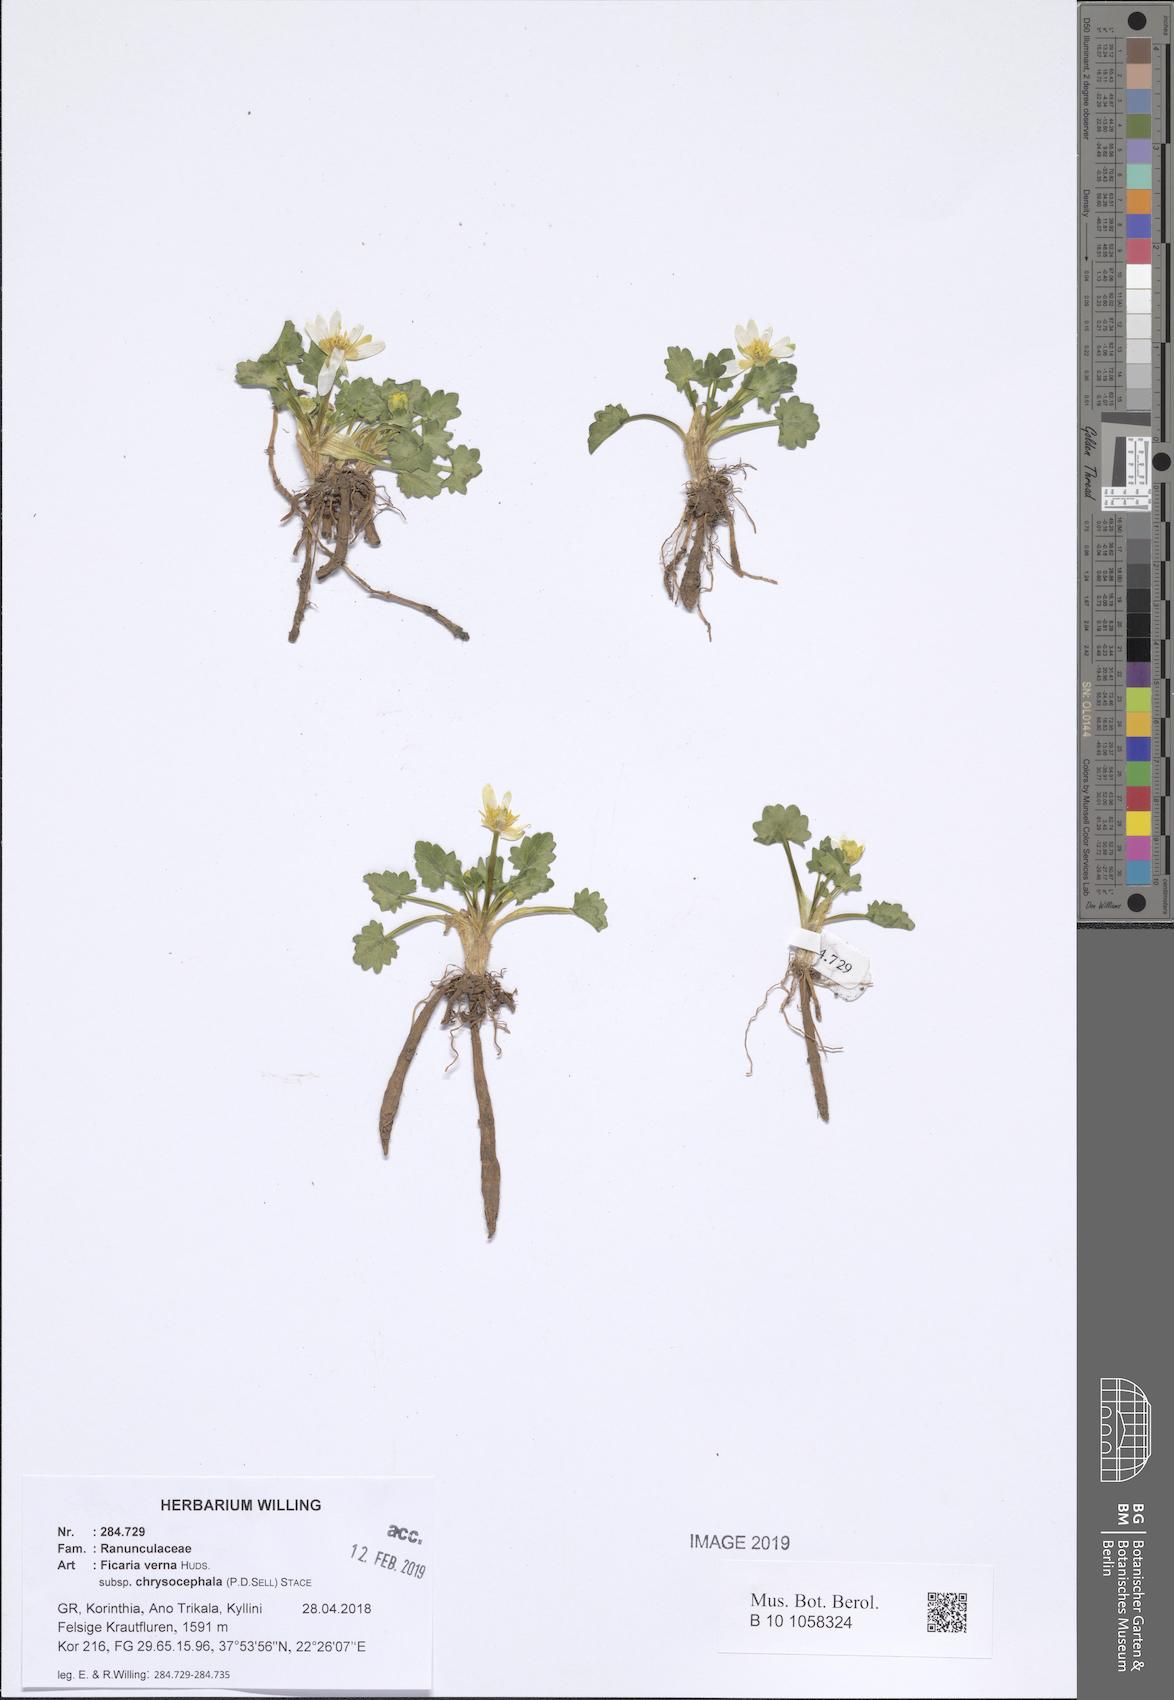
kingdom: Plantae
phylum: Tracheophyta
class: Magnoliopsida
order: Ranunculales
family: Ranunculaceae
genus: Ficaria
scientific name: Ficaria chrysocephala
